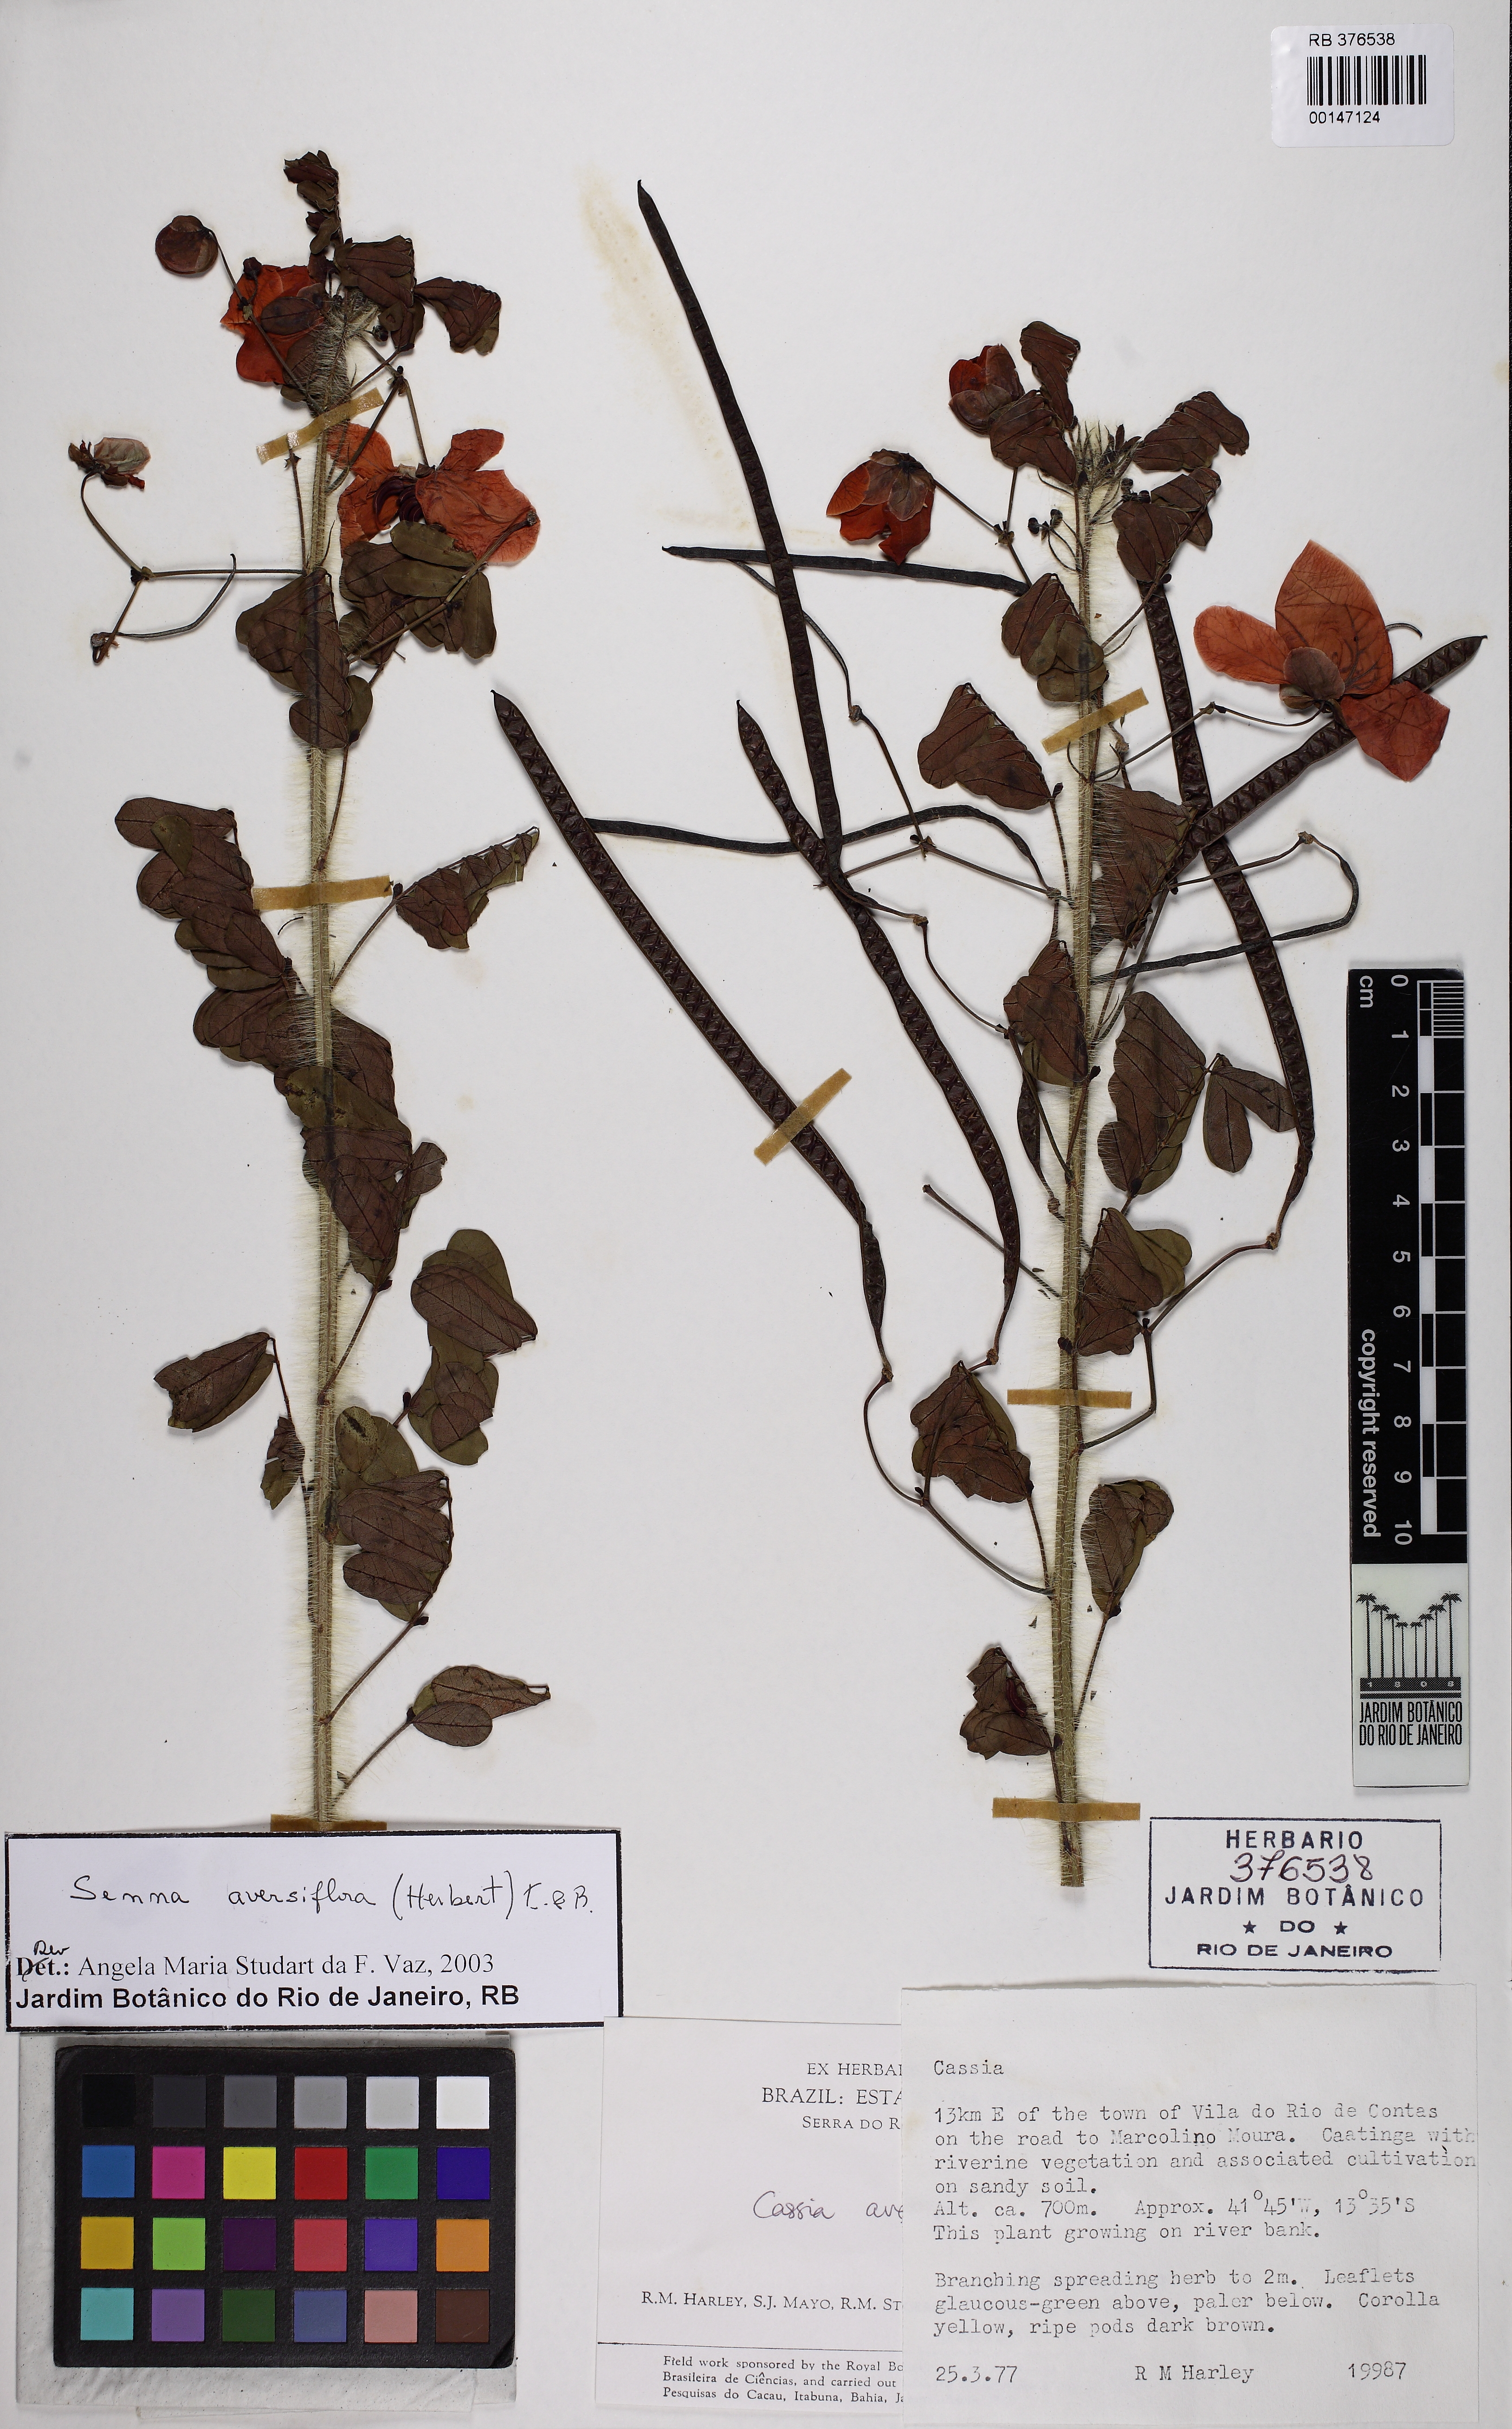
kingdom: Plantae
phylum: Tracheophyta
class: Magnoliopsida
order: Fabales
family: Fabaceae
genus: Senna
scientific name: Senna aversiflora
